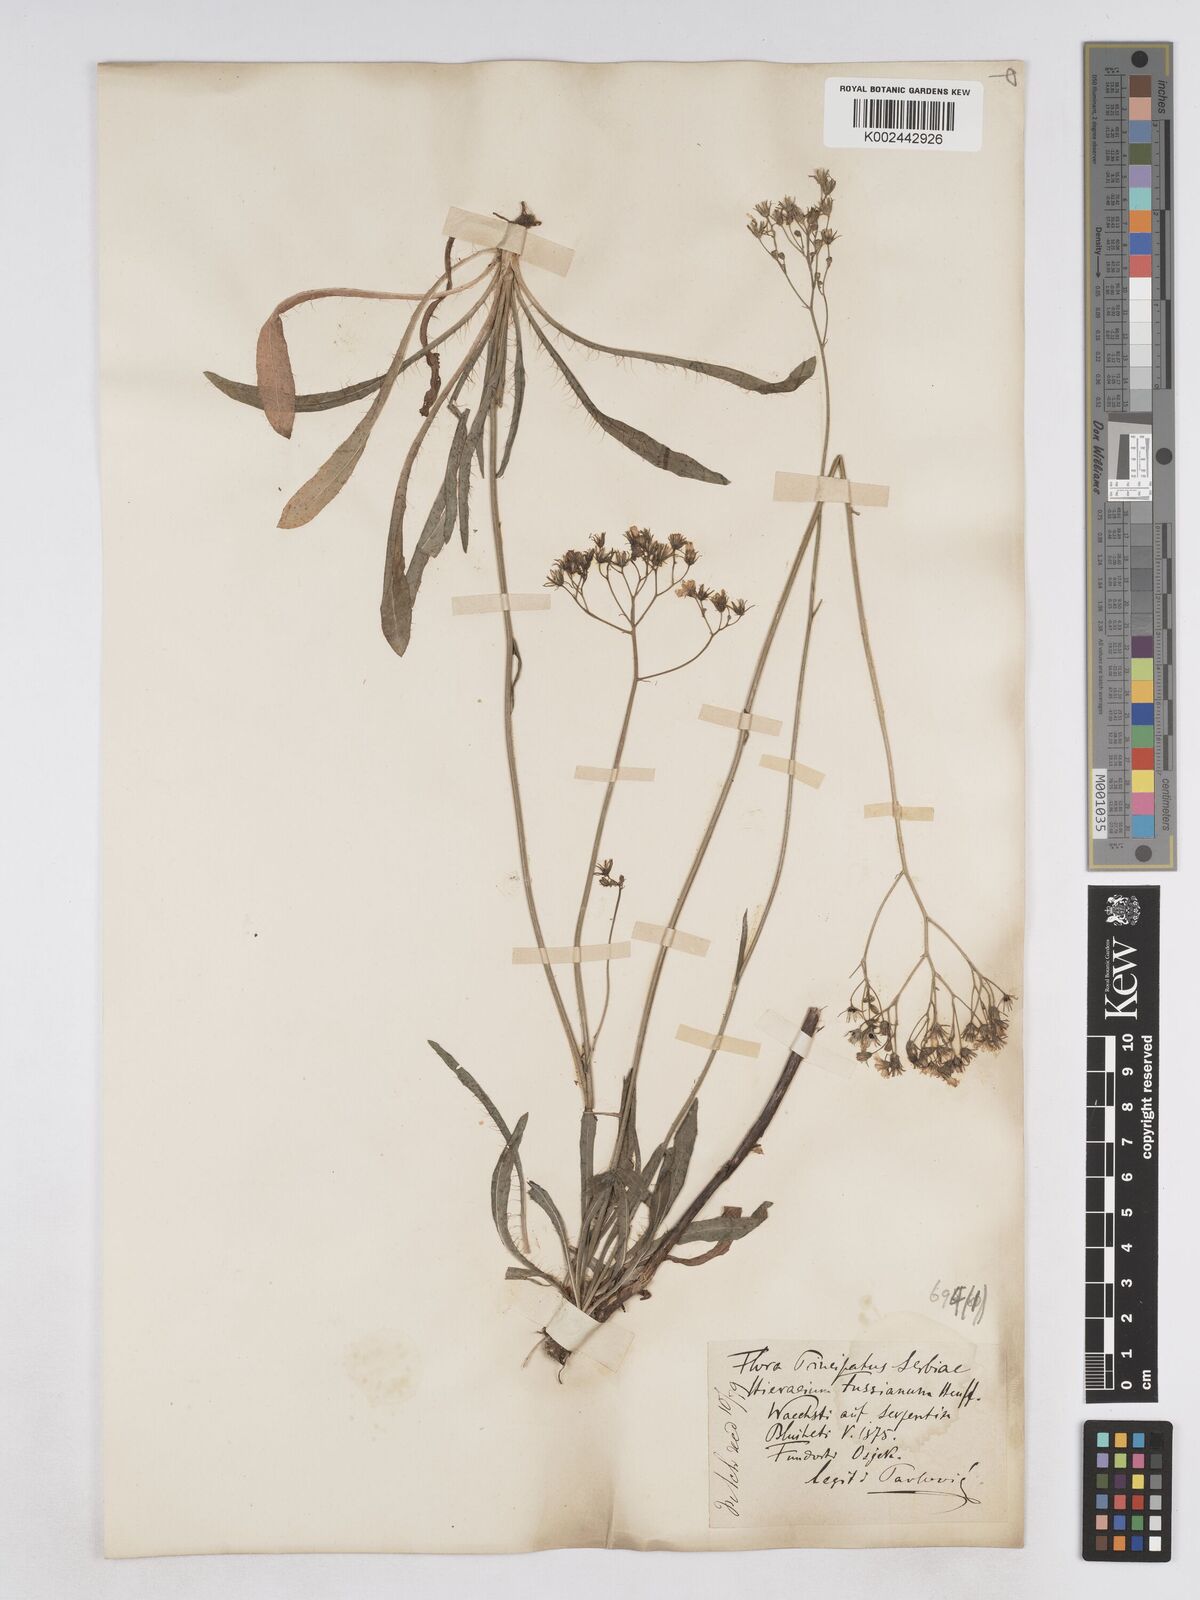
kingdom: Plantae
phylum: Tracheophyta
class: Magnoliopsida
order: Asterales
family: Asteraceae
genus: Pilosella
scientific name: Pilosella pavichii
